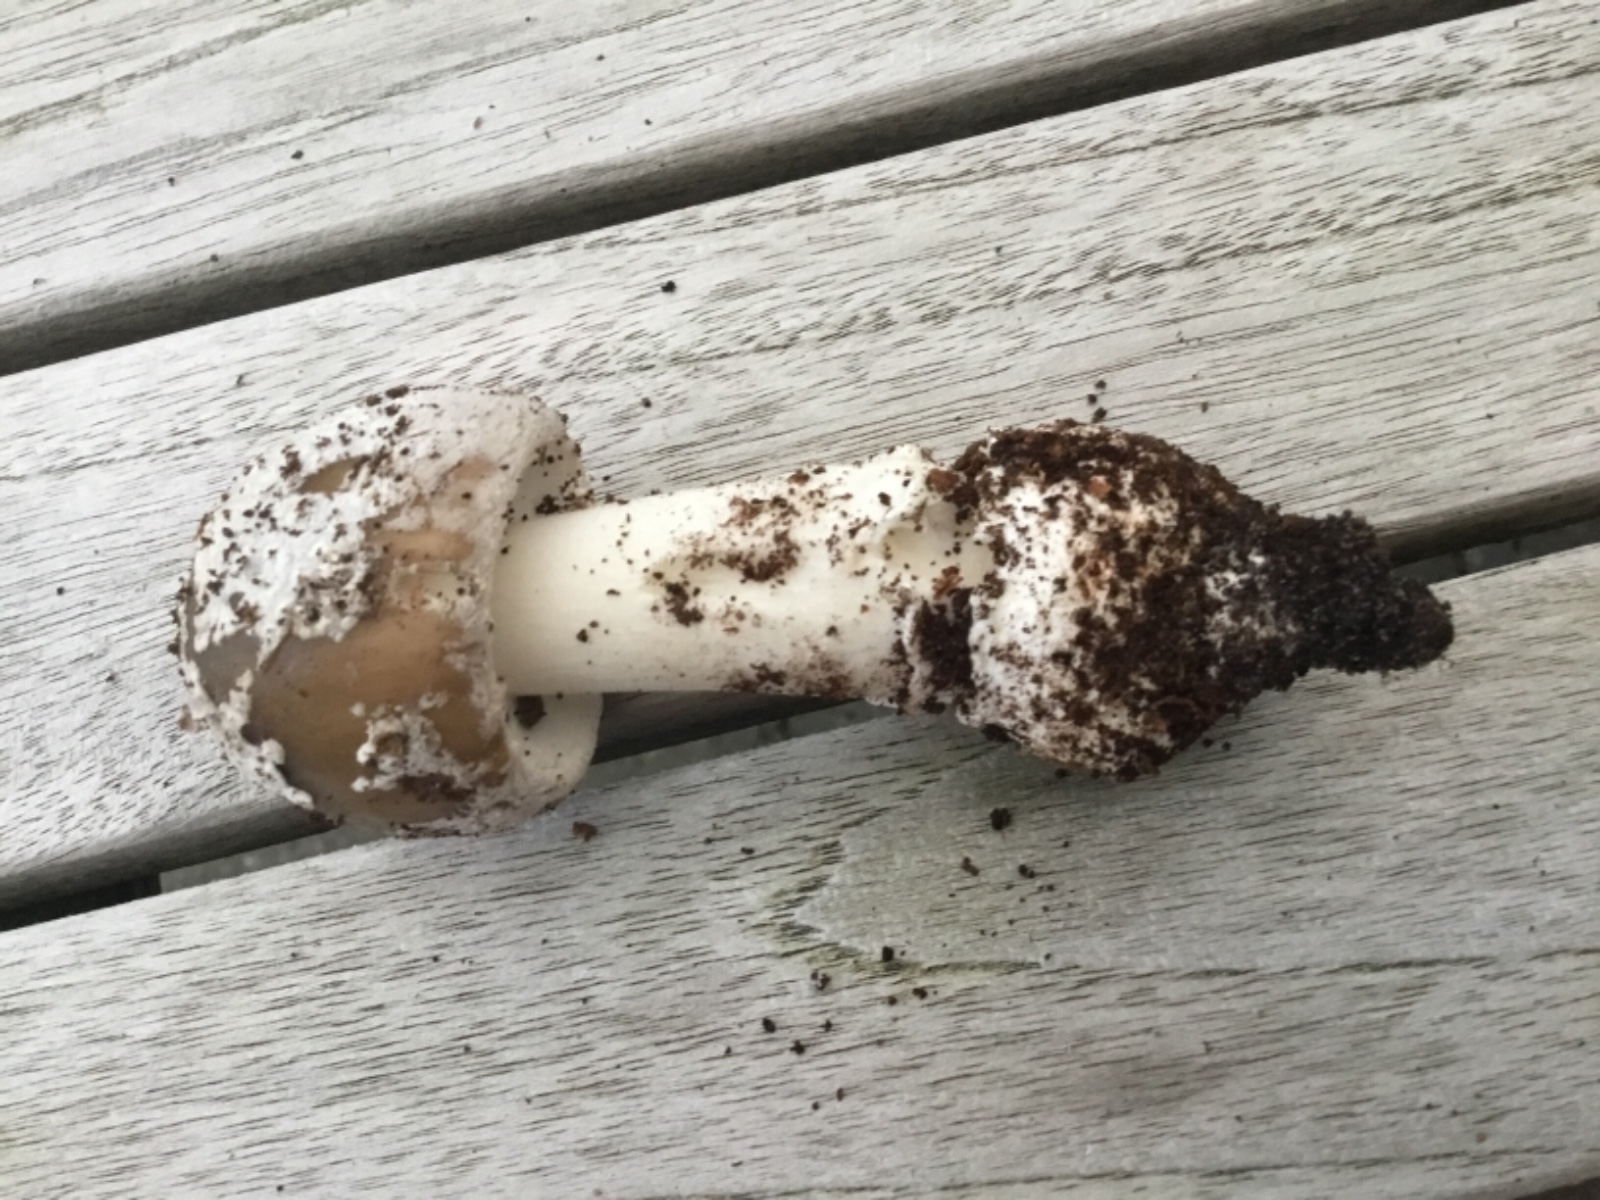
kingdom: Fungi
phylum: Basidiomycota
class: Agaricomycetes
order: Agaricales
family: Amanitaceae
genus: Amanita
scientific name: Amanita
